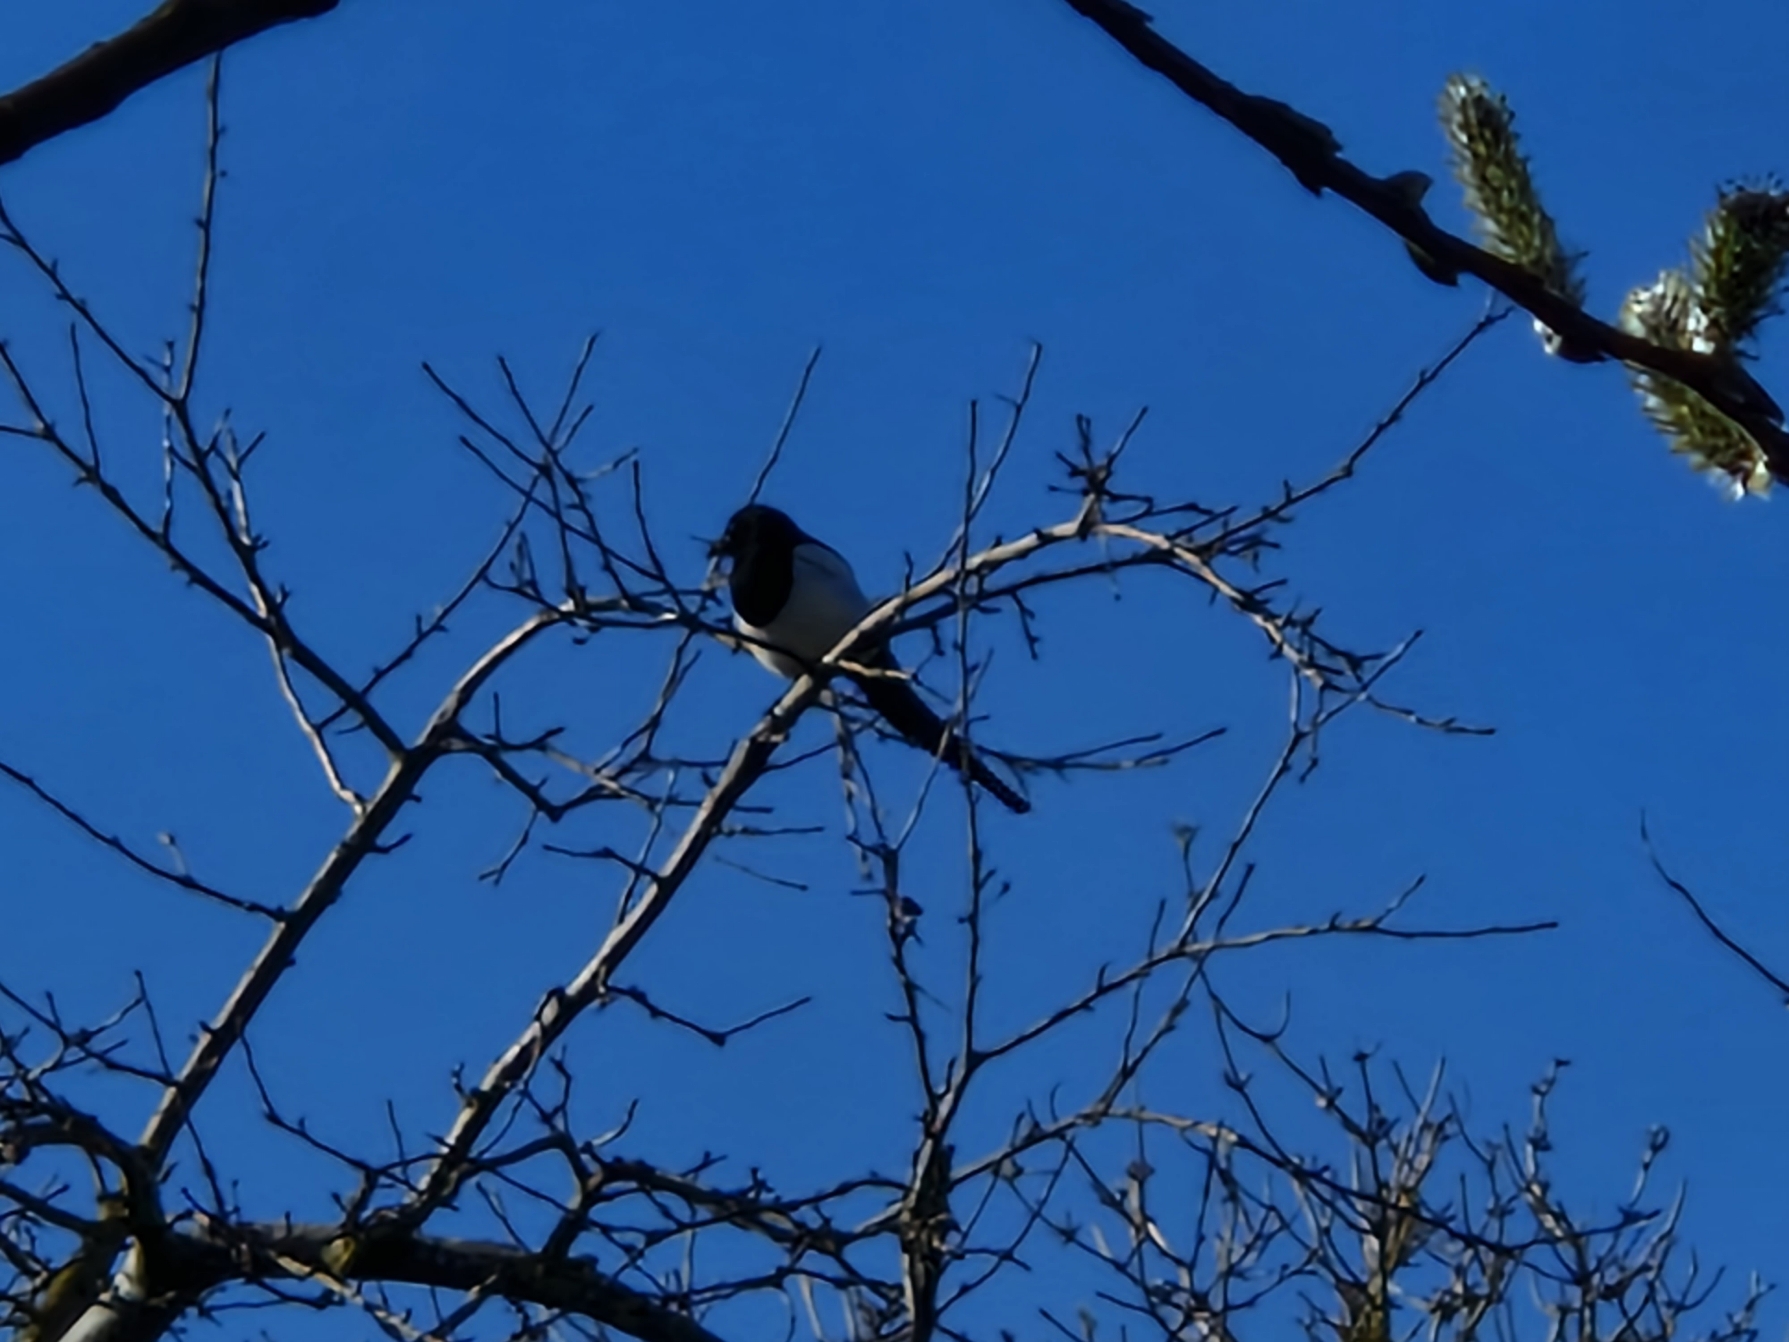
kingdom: Animalia
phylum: Chordata
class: Aves
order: Passeriformes
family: Corvidae
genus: Pica
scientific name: Pica pica
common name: Husskade
